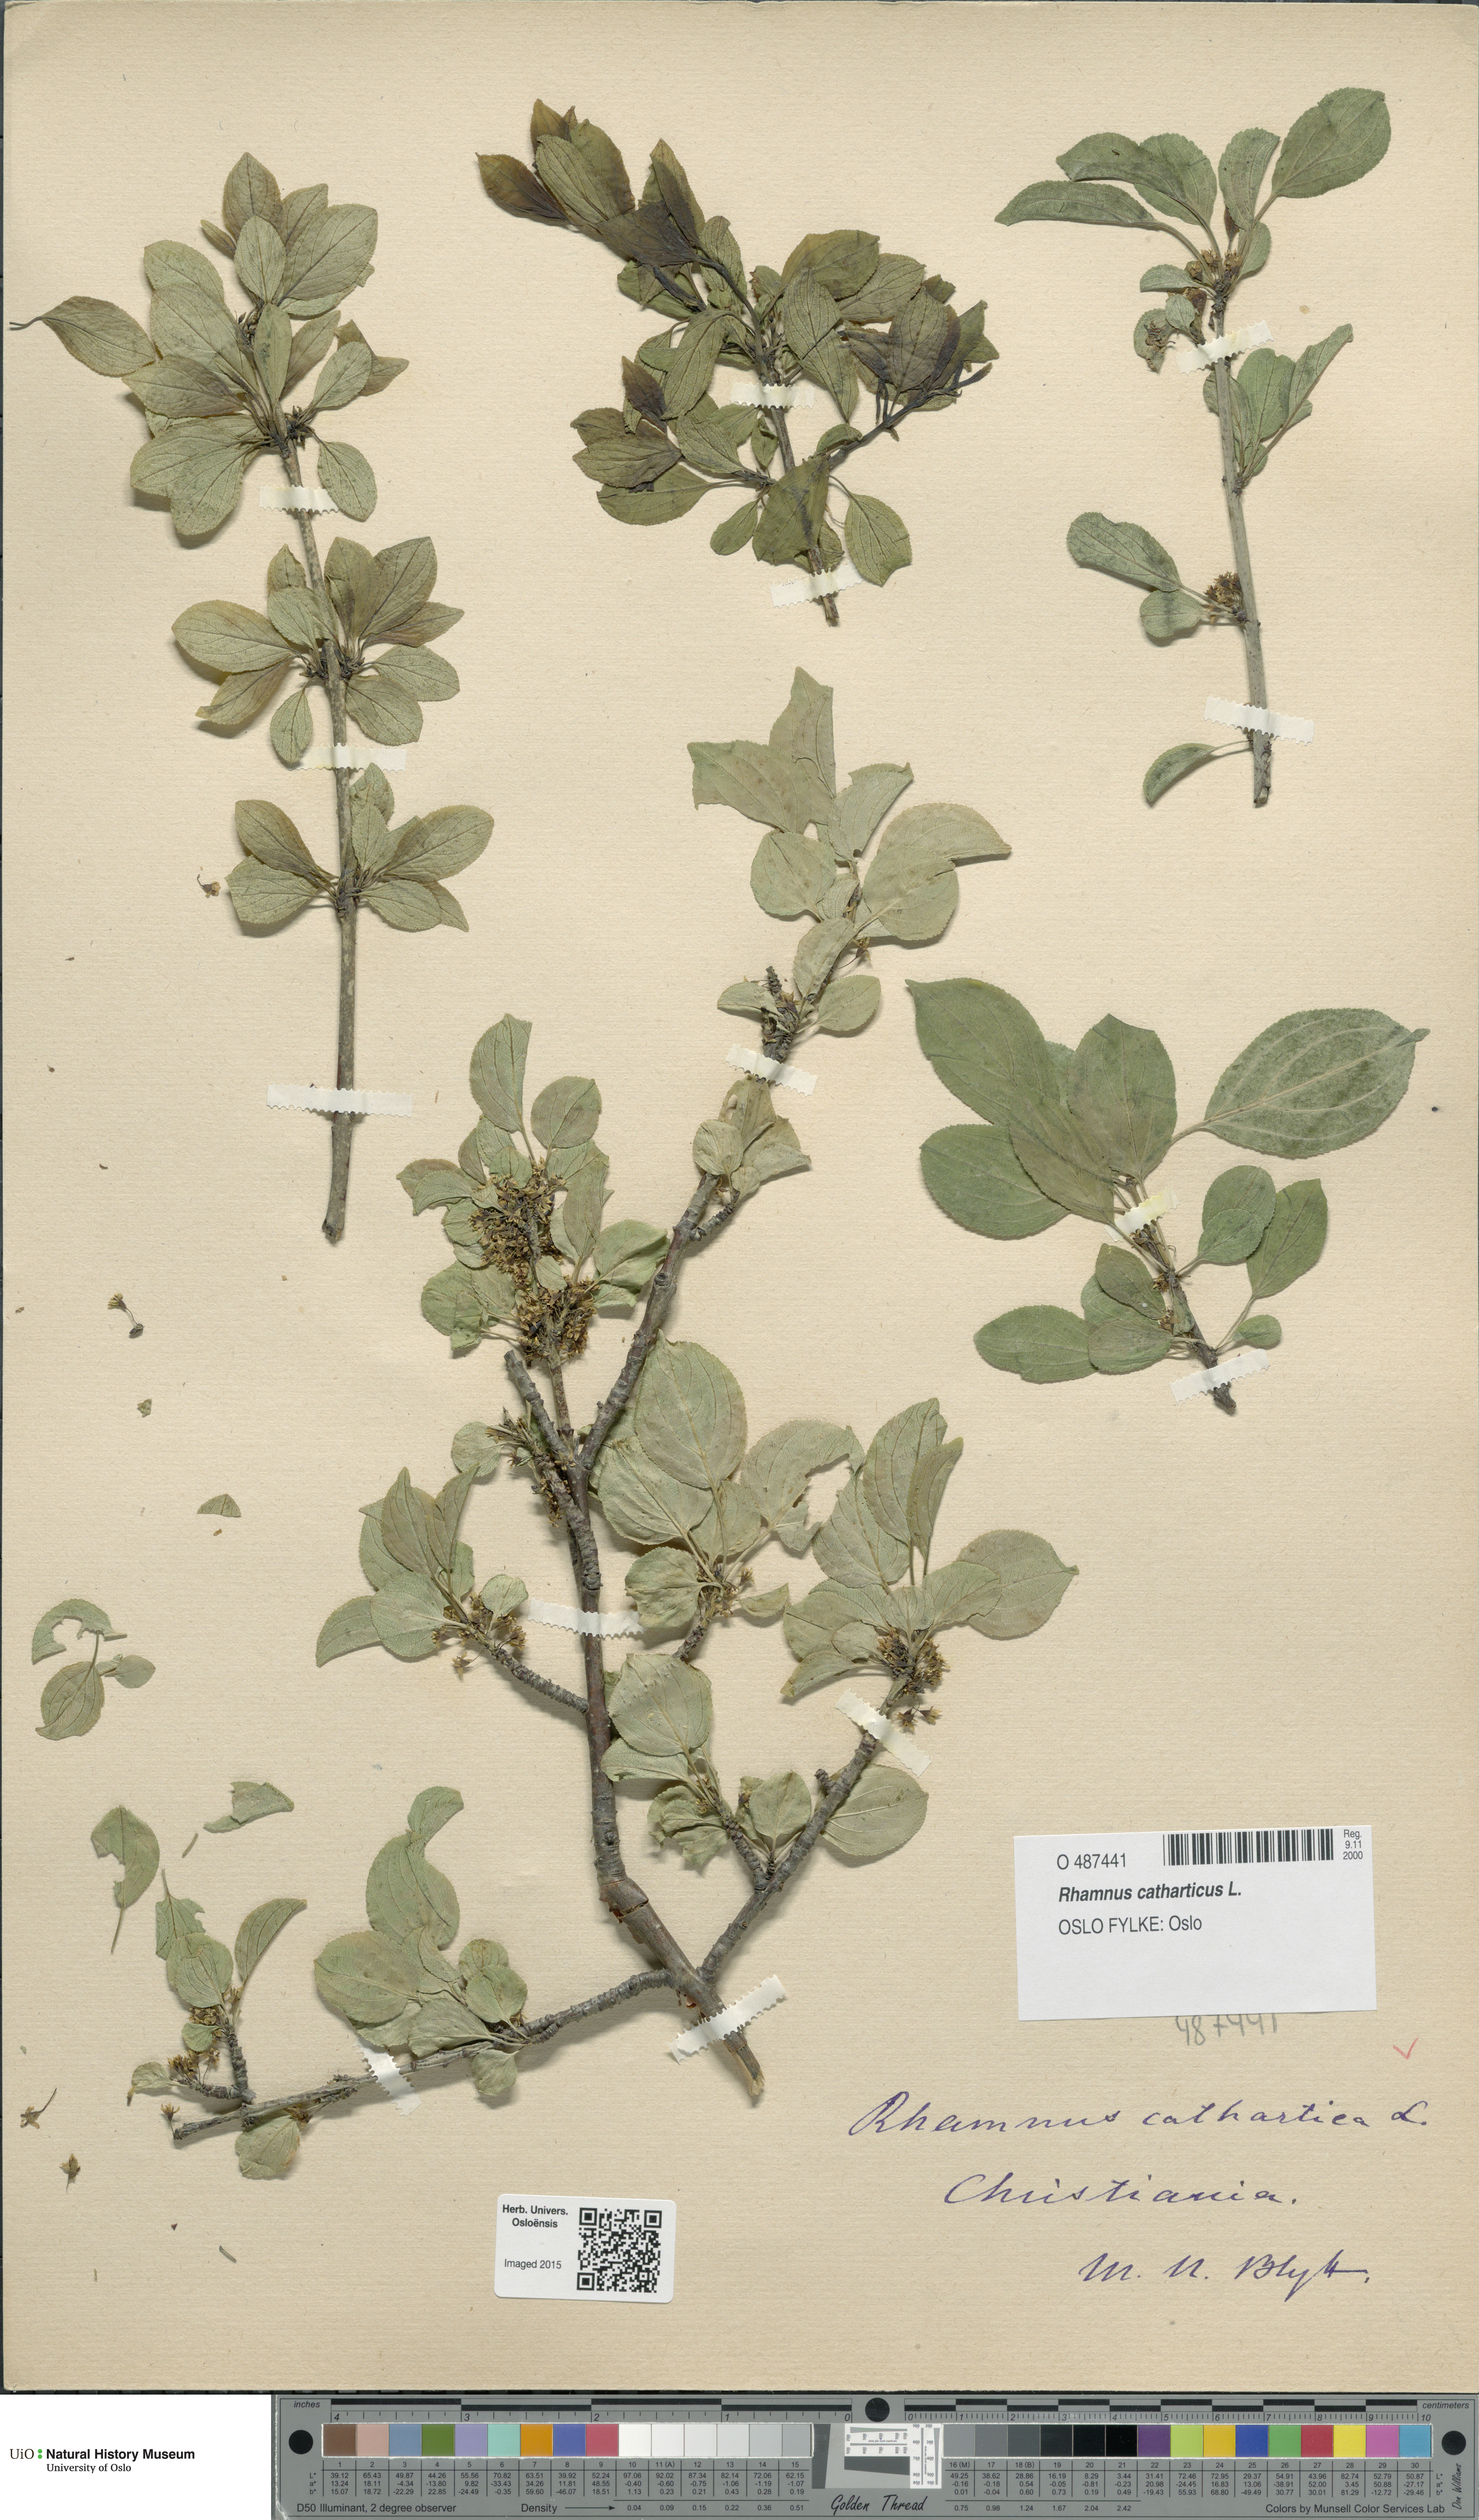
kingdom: Plantae
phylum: Tracheophyta
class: Magnoliopsida
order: Rosales
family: Rhamnaceae
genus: Rhamnus
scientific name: Rhamnus cathartica
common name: Common buckthorn
